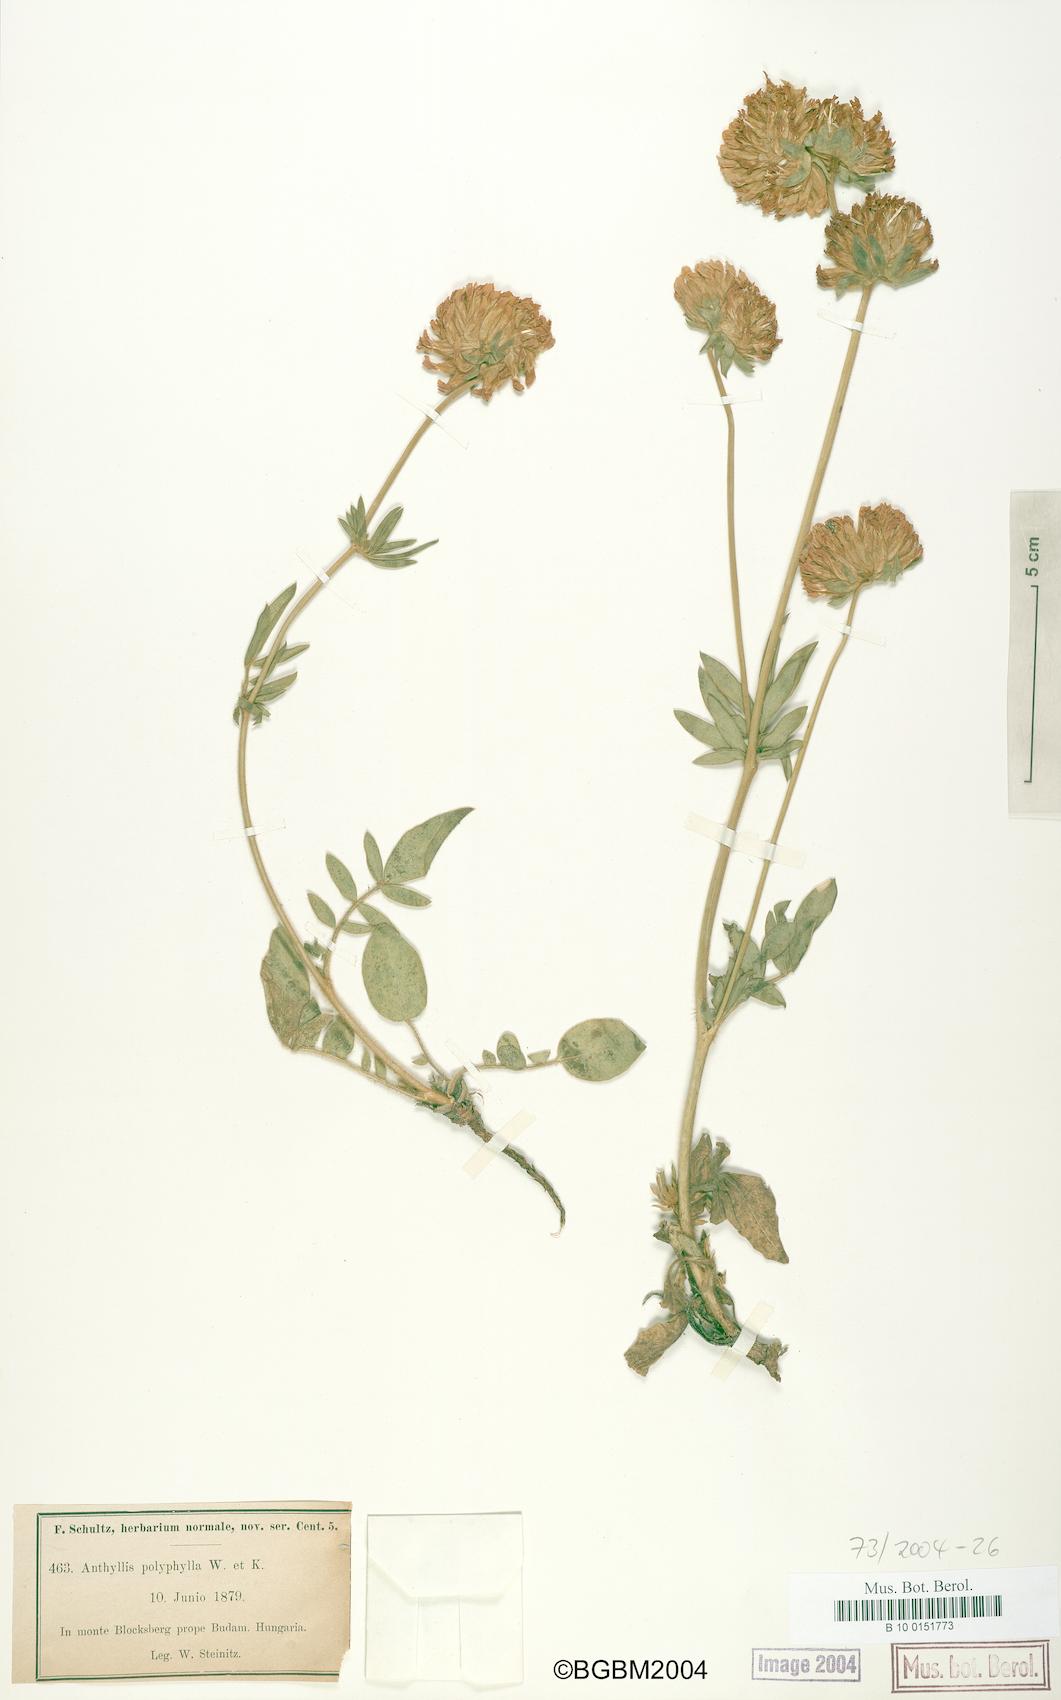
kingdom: Plantae
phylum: Tracheophyta
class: Magnoliopsida
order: Fabales
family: Fabaceae
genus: Anthyllis
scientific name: Anthyllis vulneraria
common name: Kidney vetch
